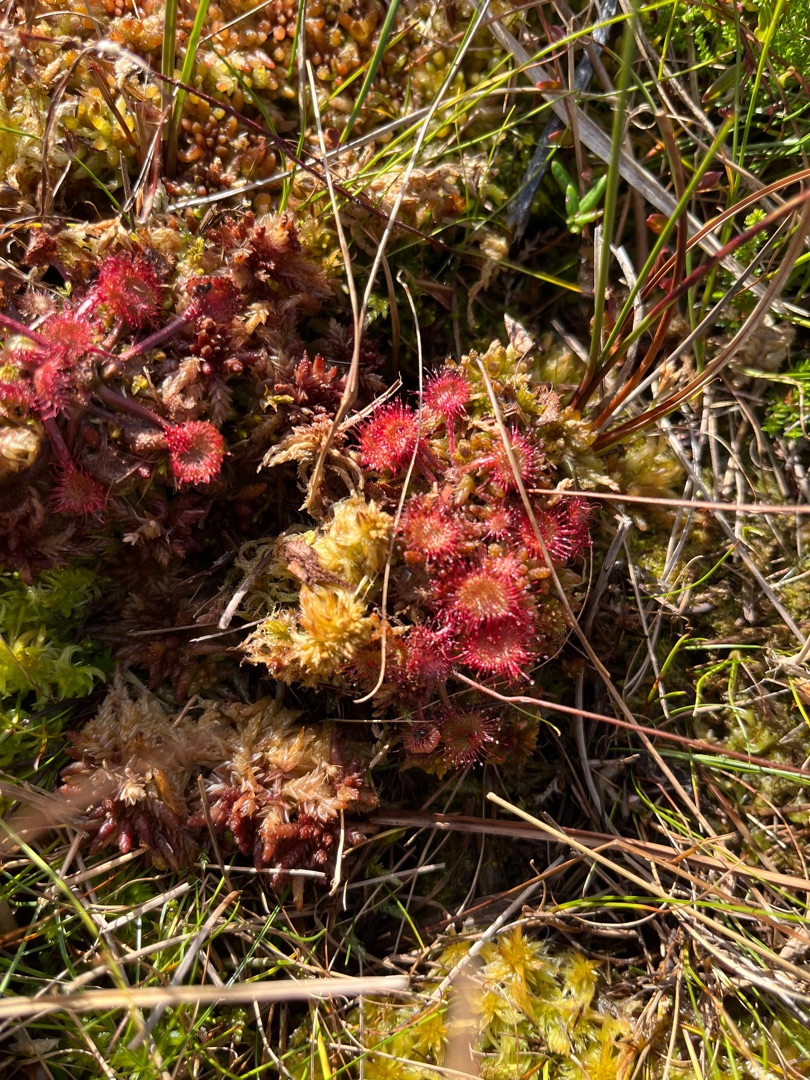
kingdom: Plantae
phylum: Tracheophyta
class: Magnoliopsida
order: Caryophyllales
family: Droseraceae
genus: Drosera
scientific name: Drosera rotundifolia
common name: Rundbladet soldug
